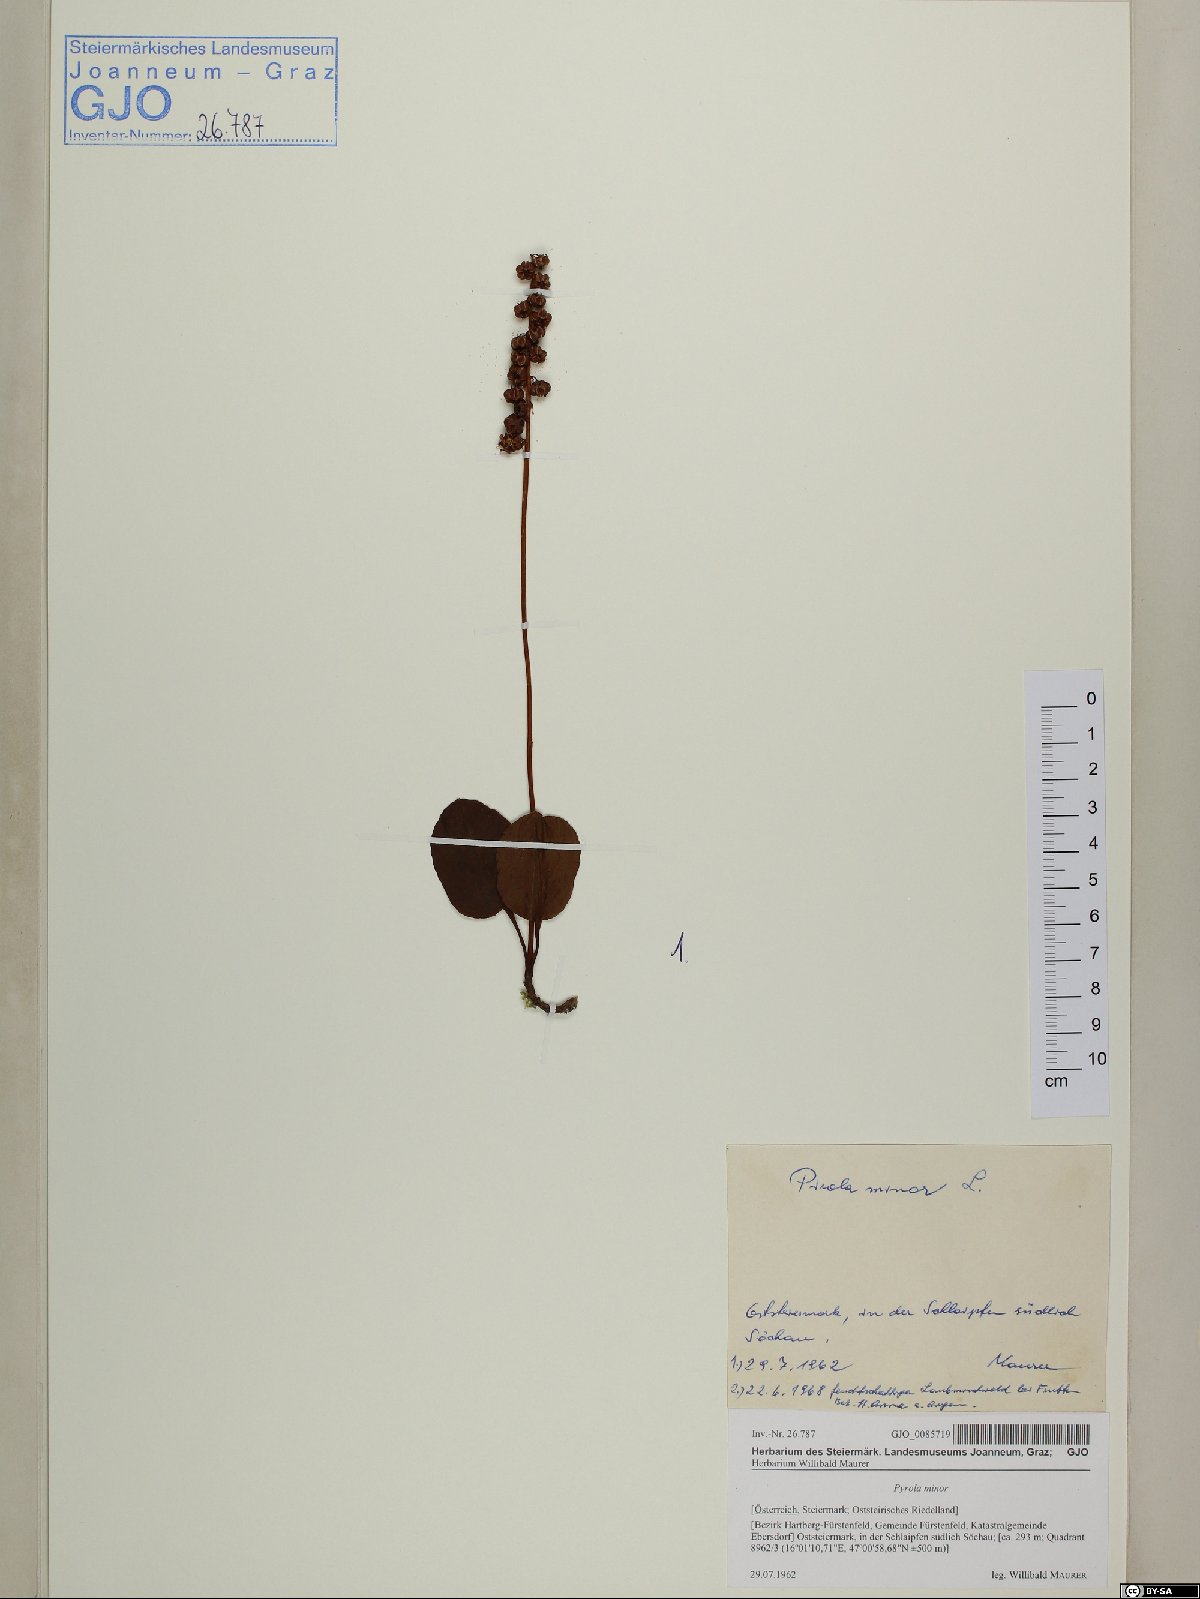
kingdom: Plantae
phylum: Tracheophyta
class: Magnoliopsida
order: Ericales
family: Ericaceae
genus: Pyrola
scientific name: Pyrola minor
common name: Common wintergreen
